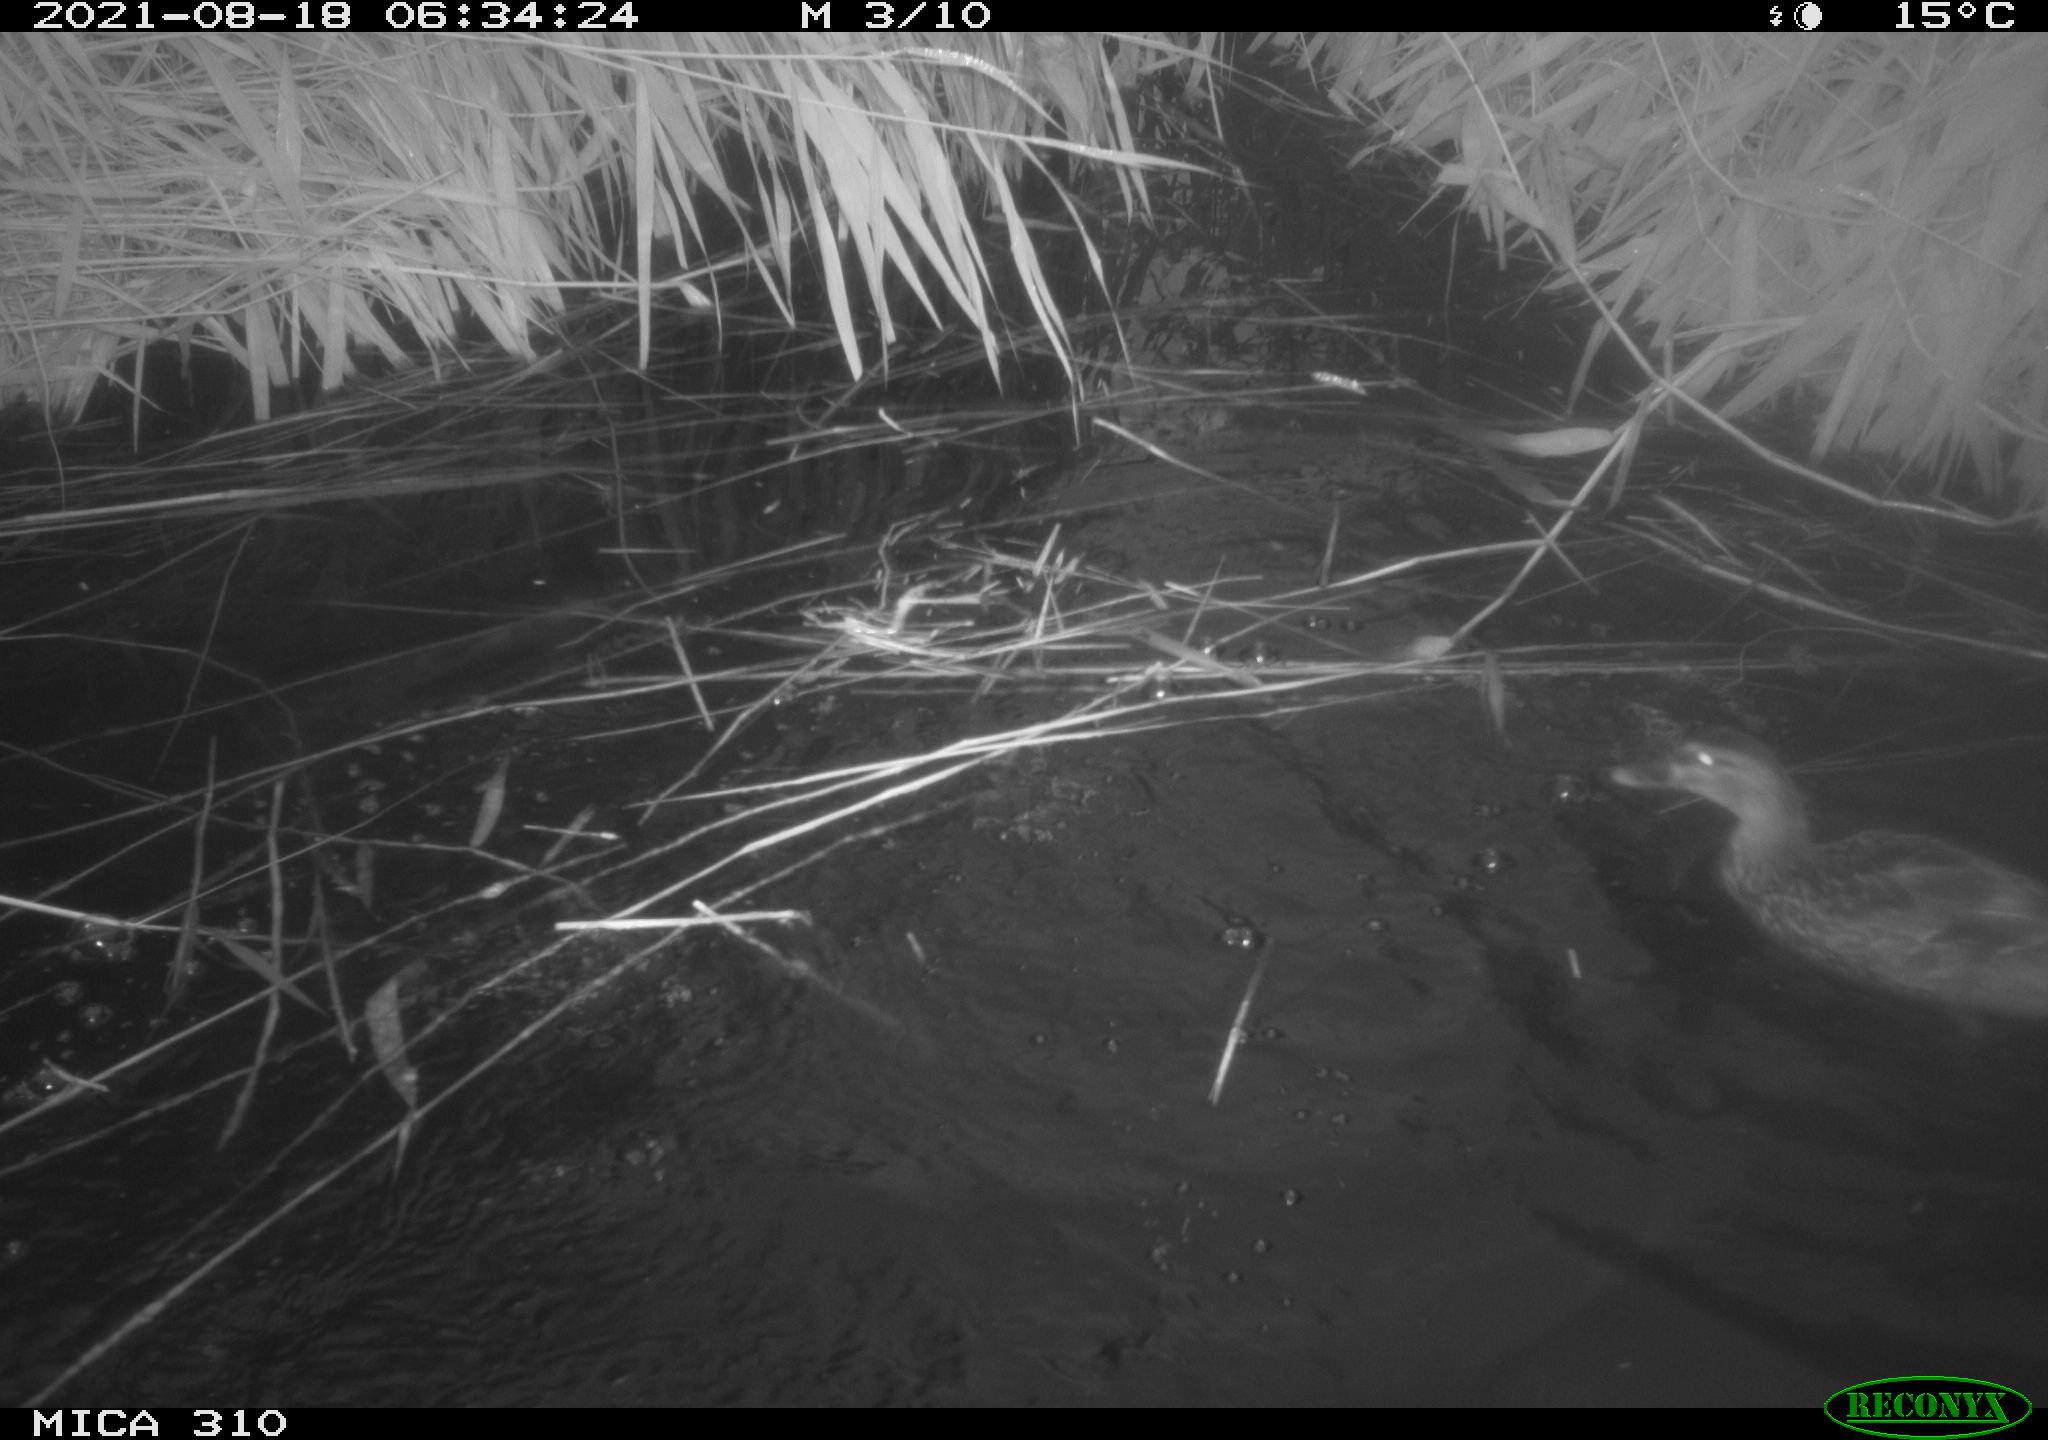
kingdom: Animalia
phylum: Chordata
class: Aves
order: Gruiformes
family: Rallidae
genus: Gallinula
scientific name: Gallinula chloropus
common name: Common moorhen
